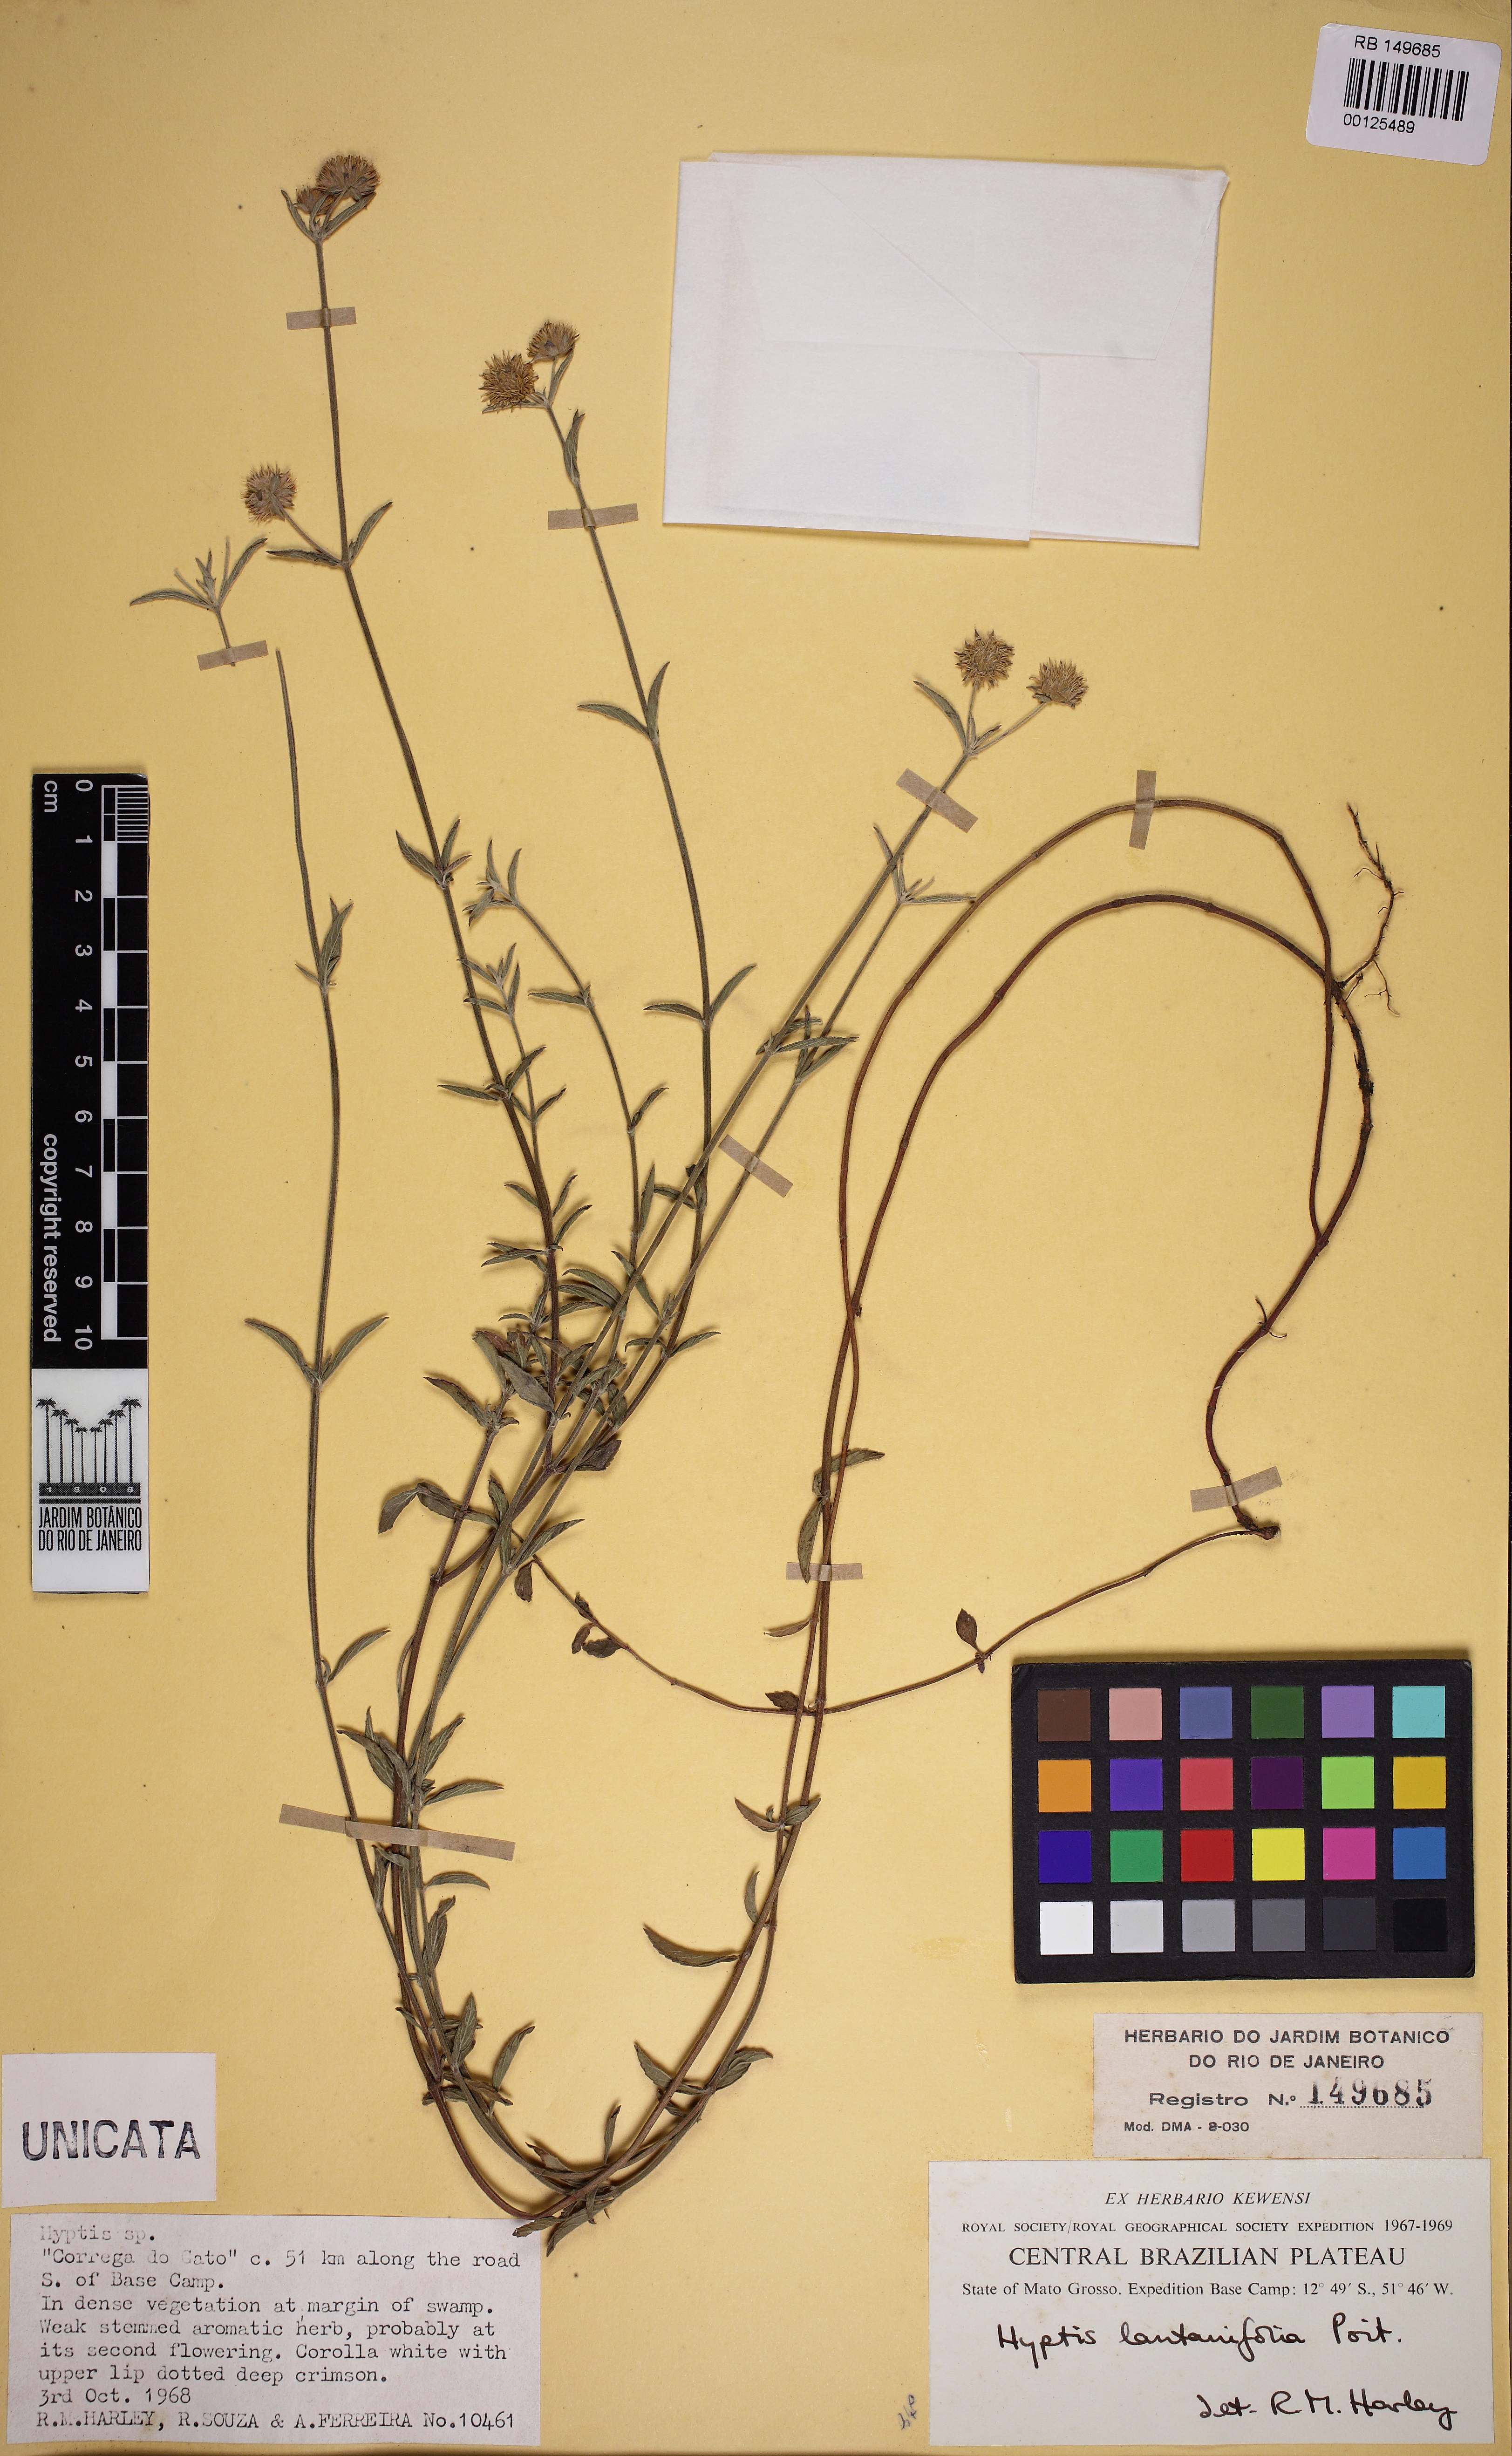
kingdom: Plantae
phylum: Tracheophyta
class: Magnoliopsida
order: Lamiales
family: Lamiaceae
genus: Hyptis
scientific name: Hyptis lantanifolia
